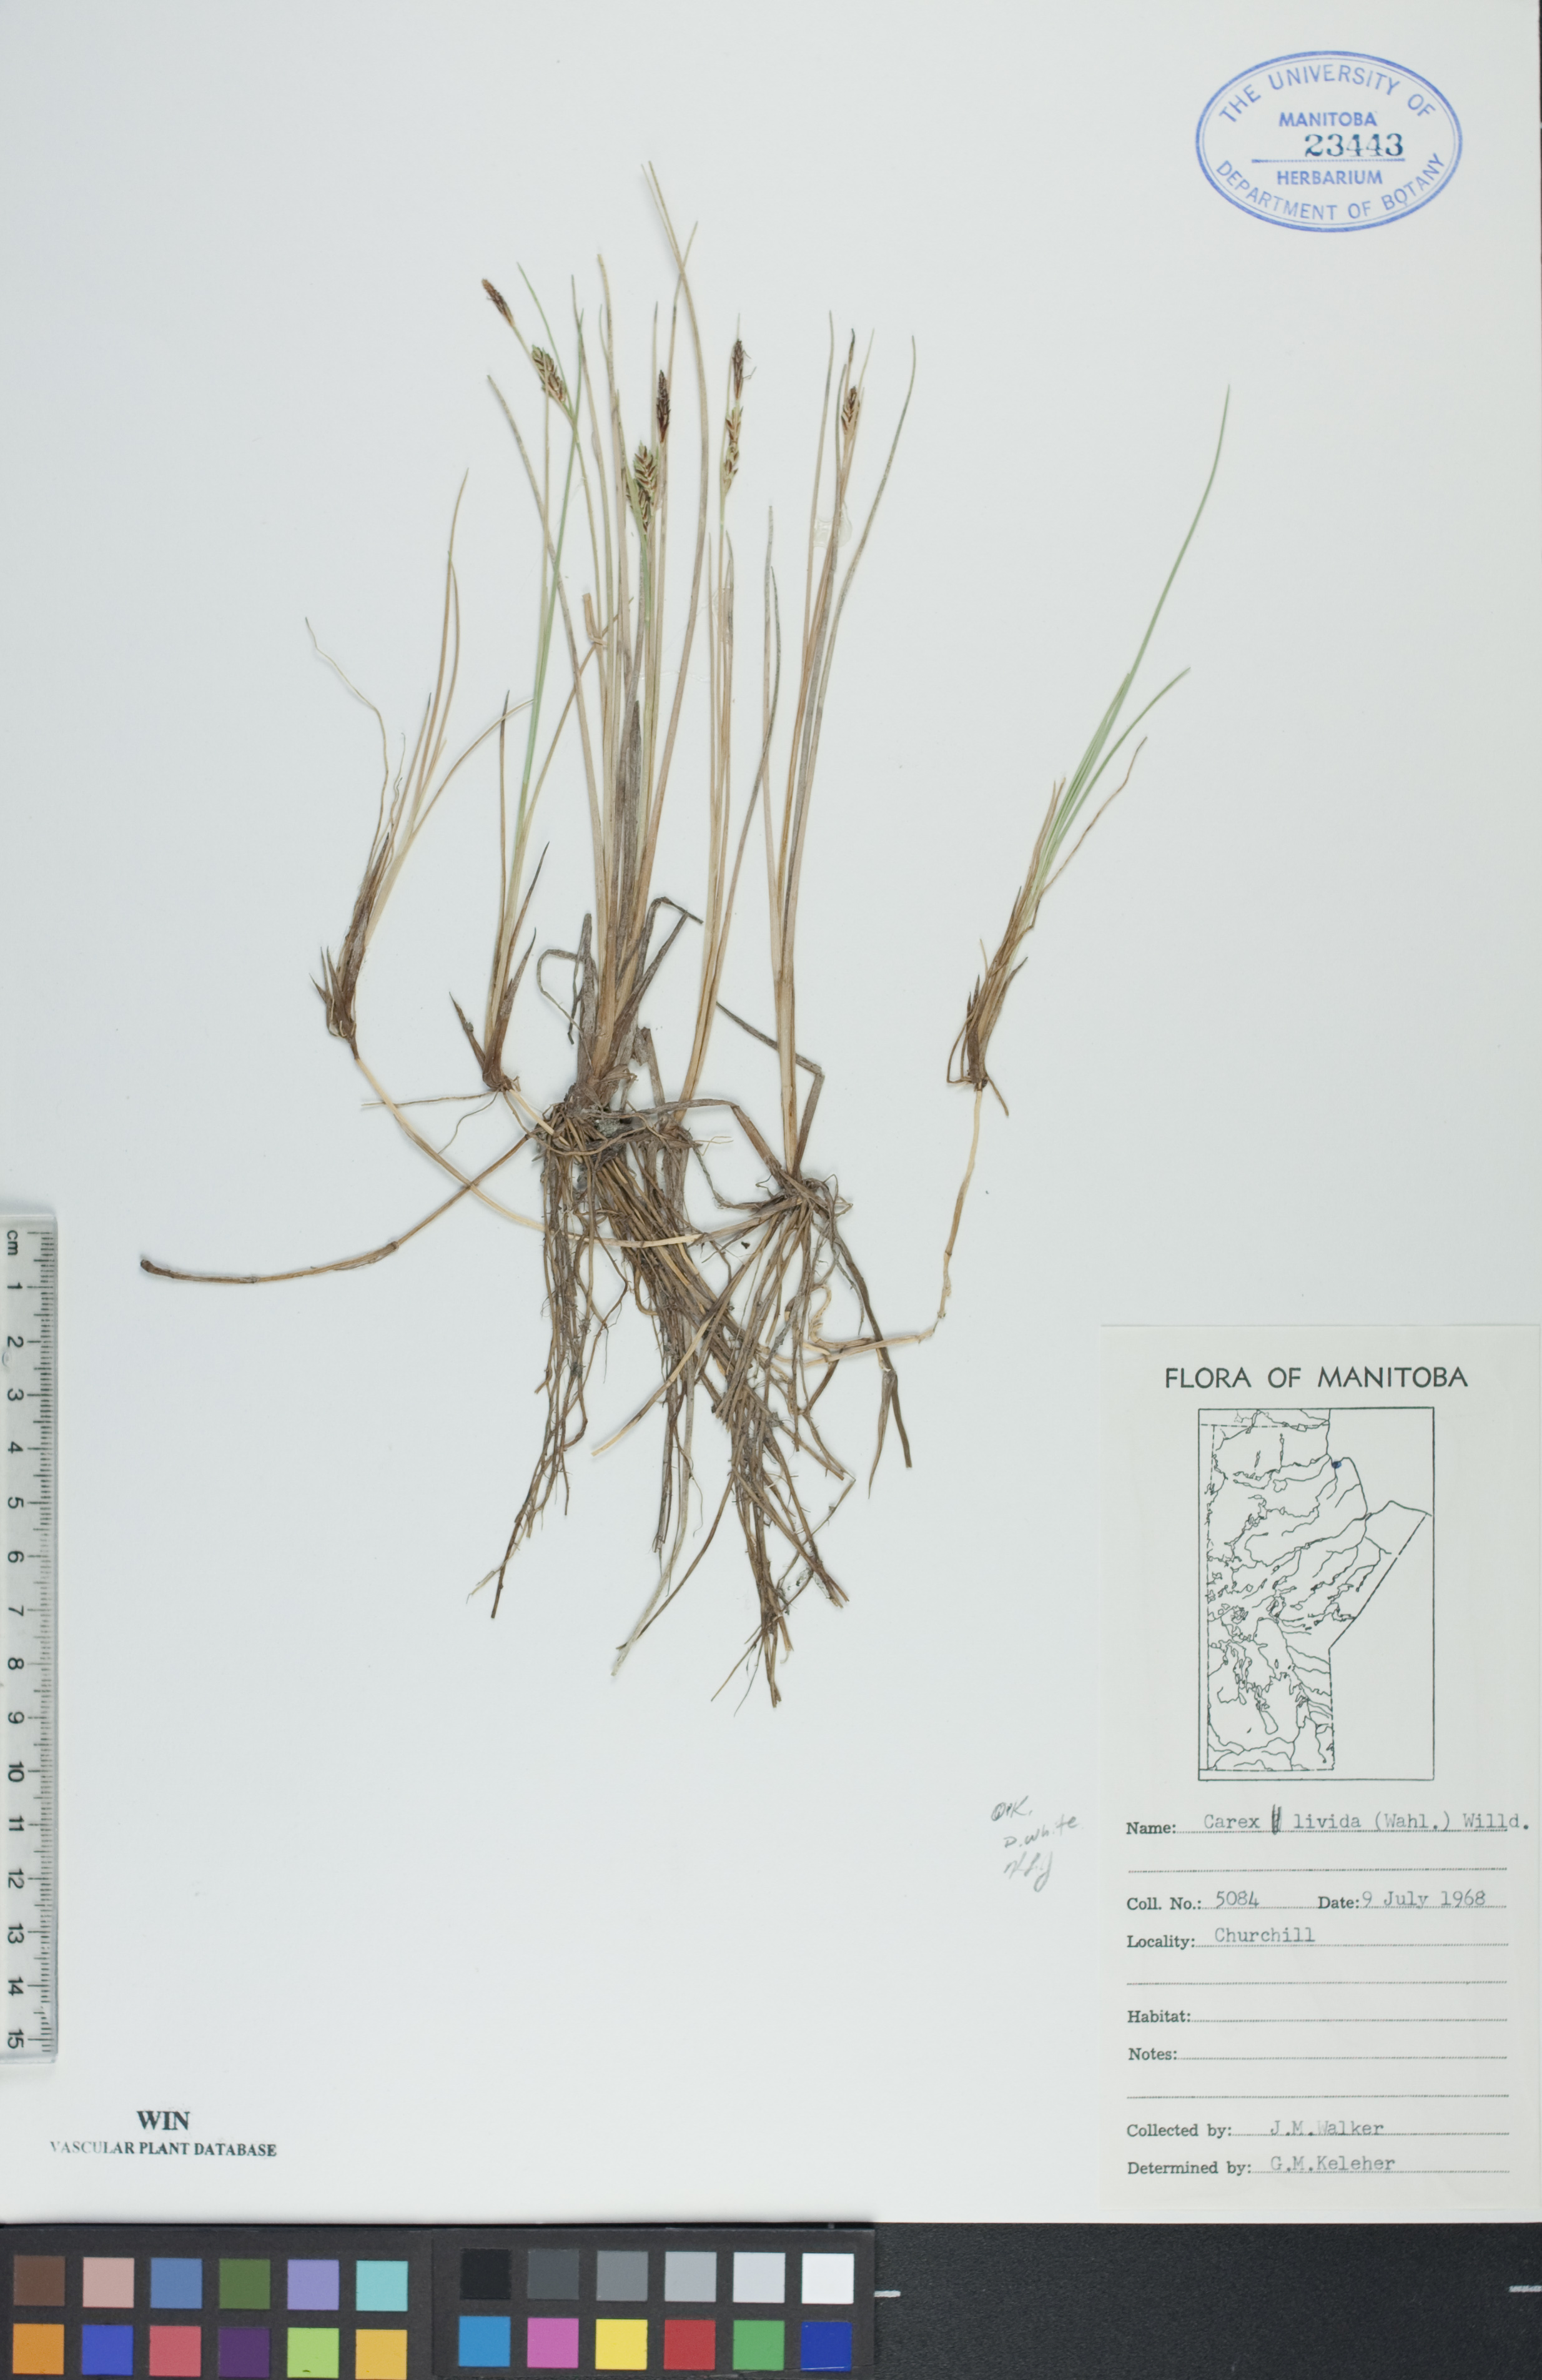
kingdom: Plantae
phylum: Tracheophyta
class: Liliopsida
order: Poales
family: Cyperaceae
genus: Carex
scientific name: Carex livida
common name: Livid sedge
